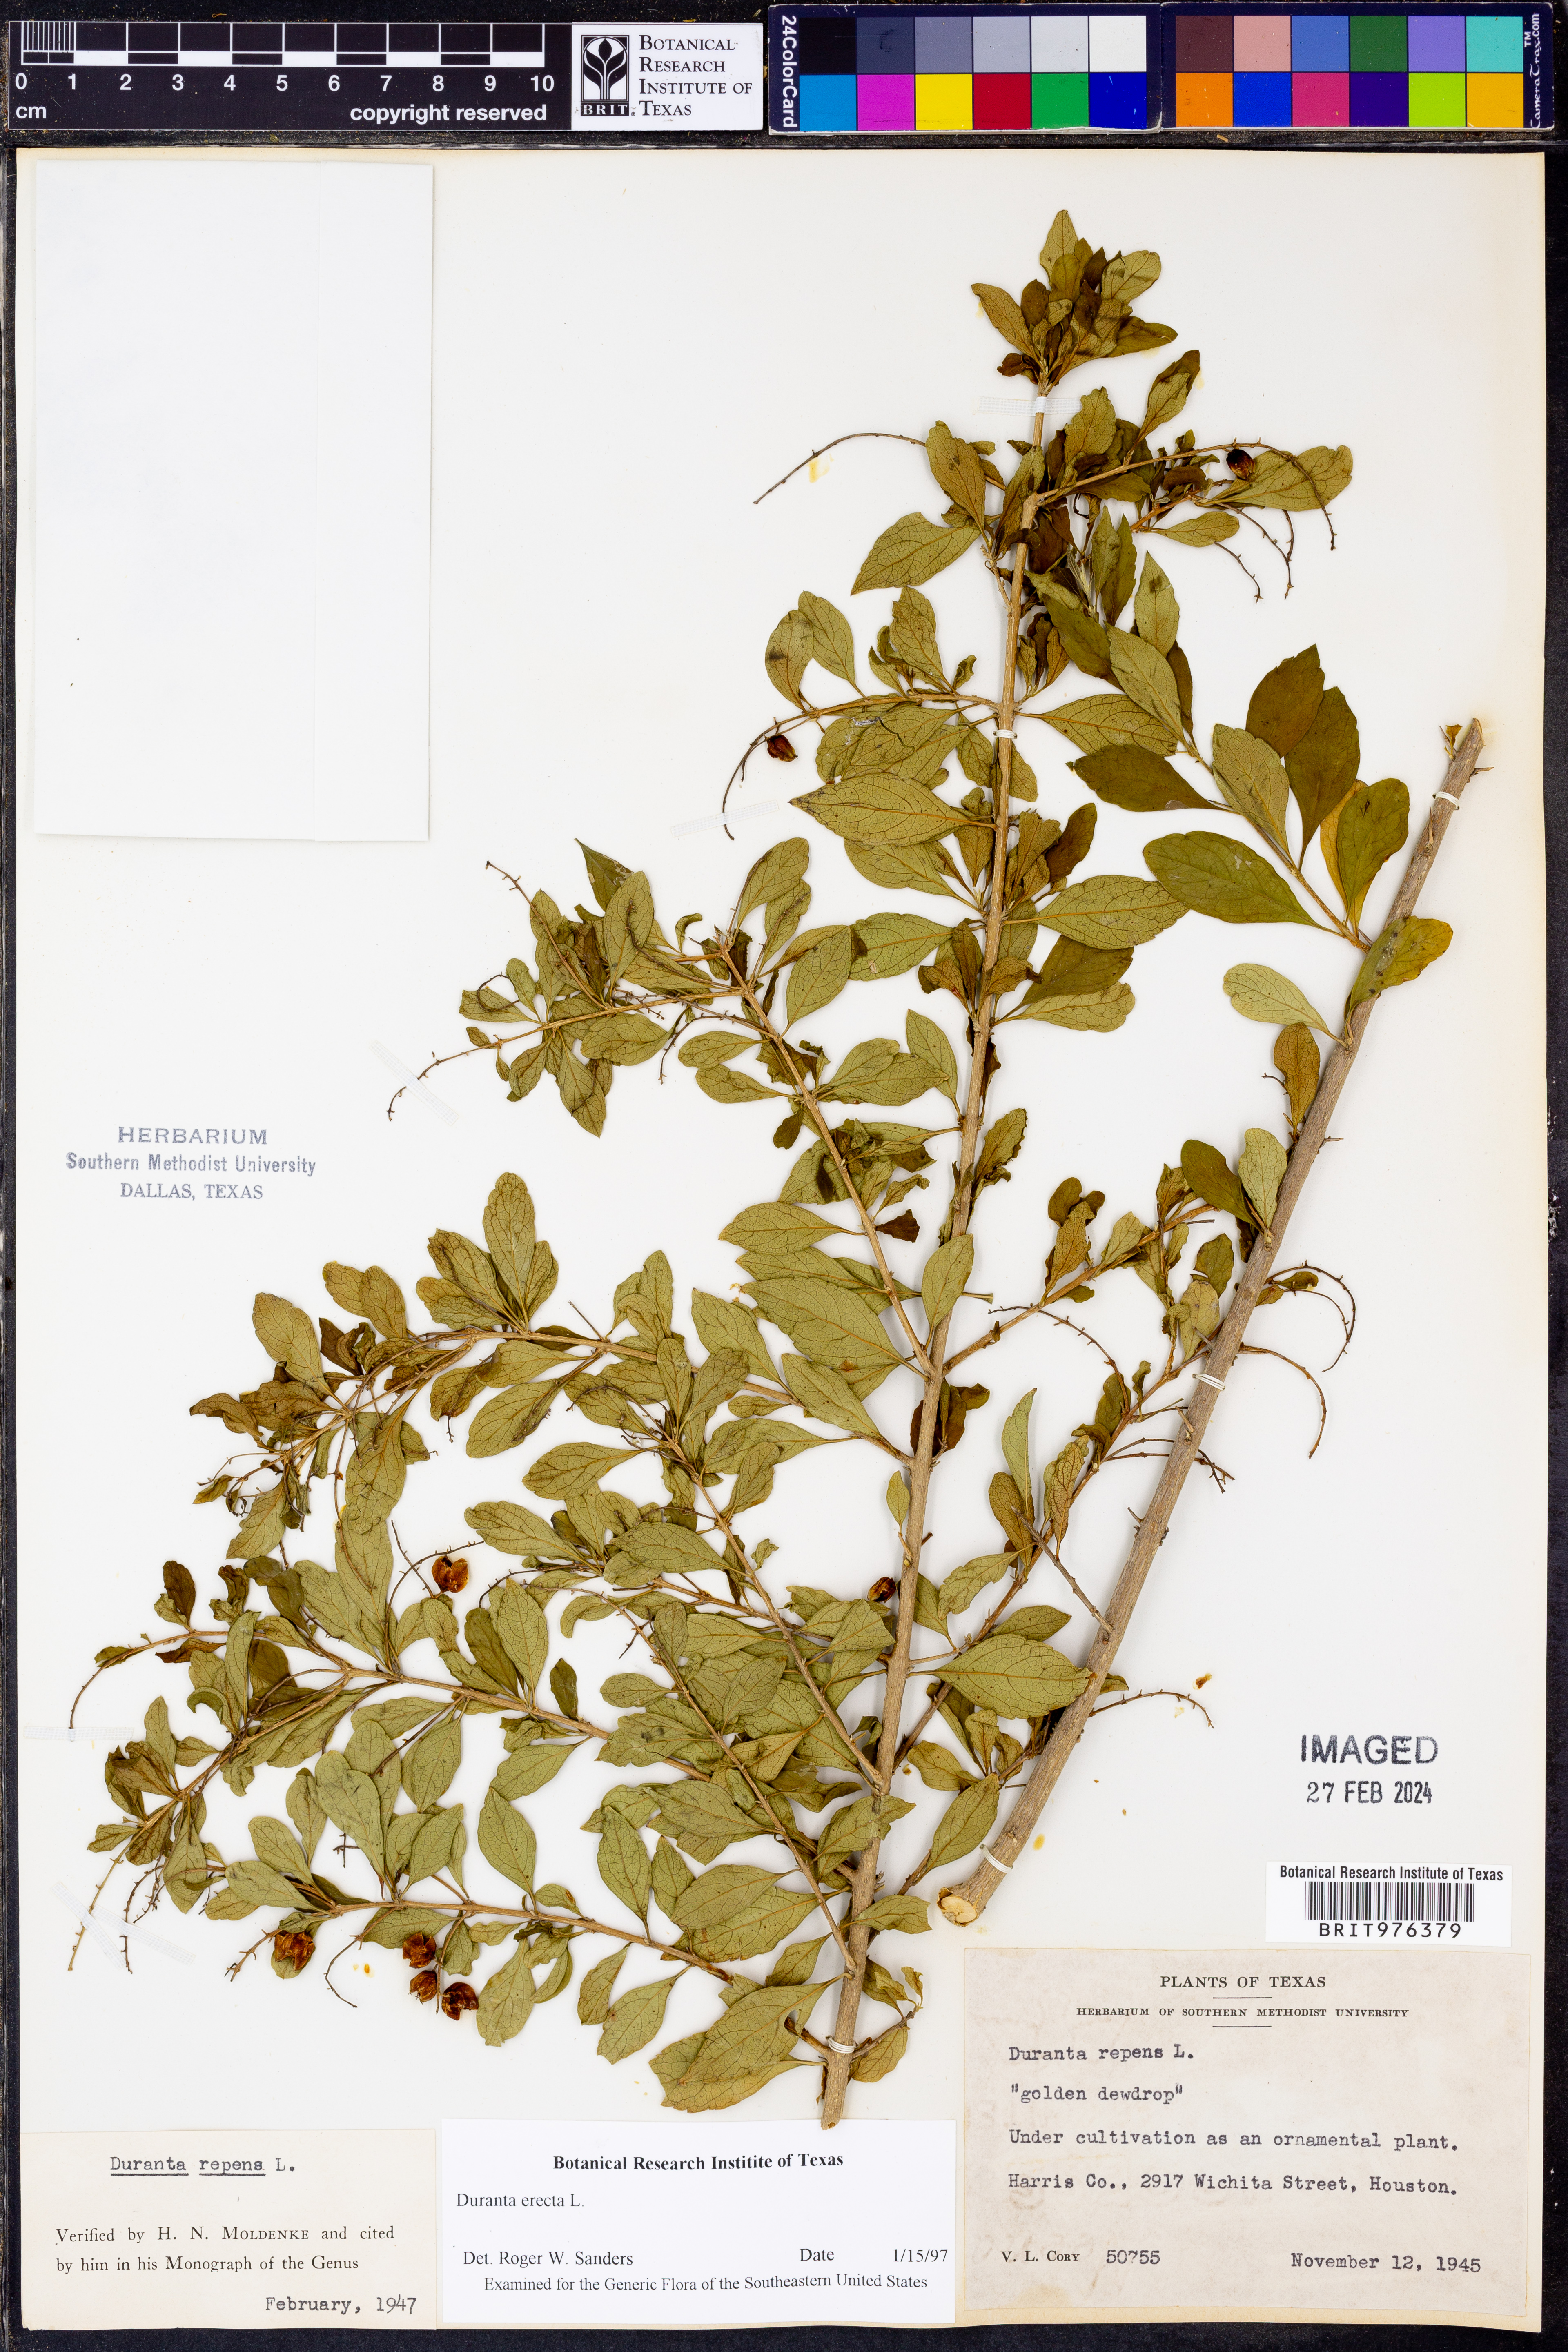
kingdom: Plantae
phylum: Tracheophyta
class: Magnoliopsida
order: Lamiales
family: Verbenaceae
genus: Duranta
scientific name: Duranta
